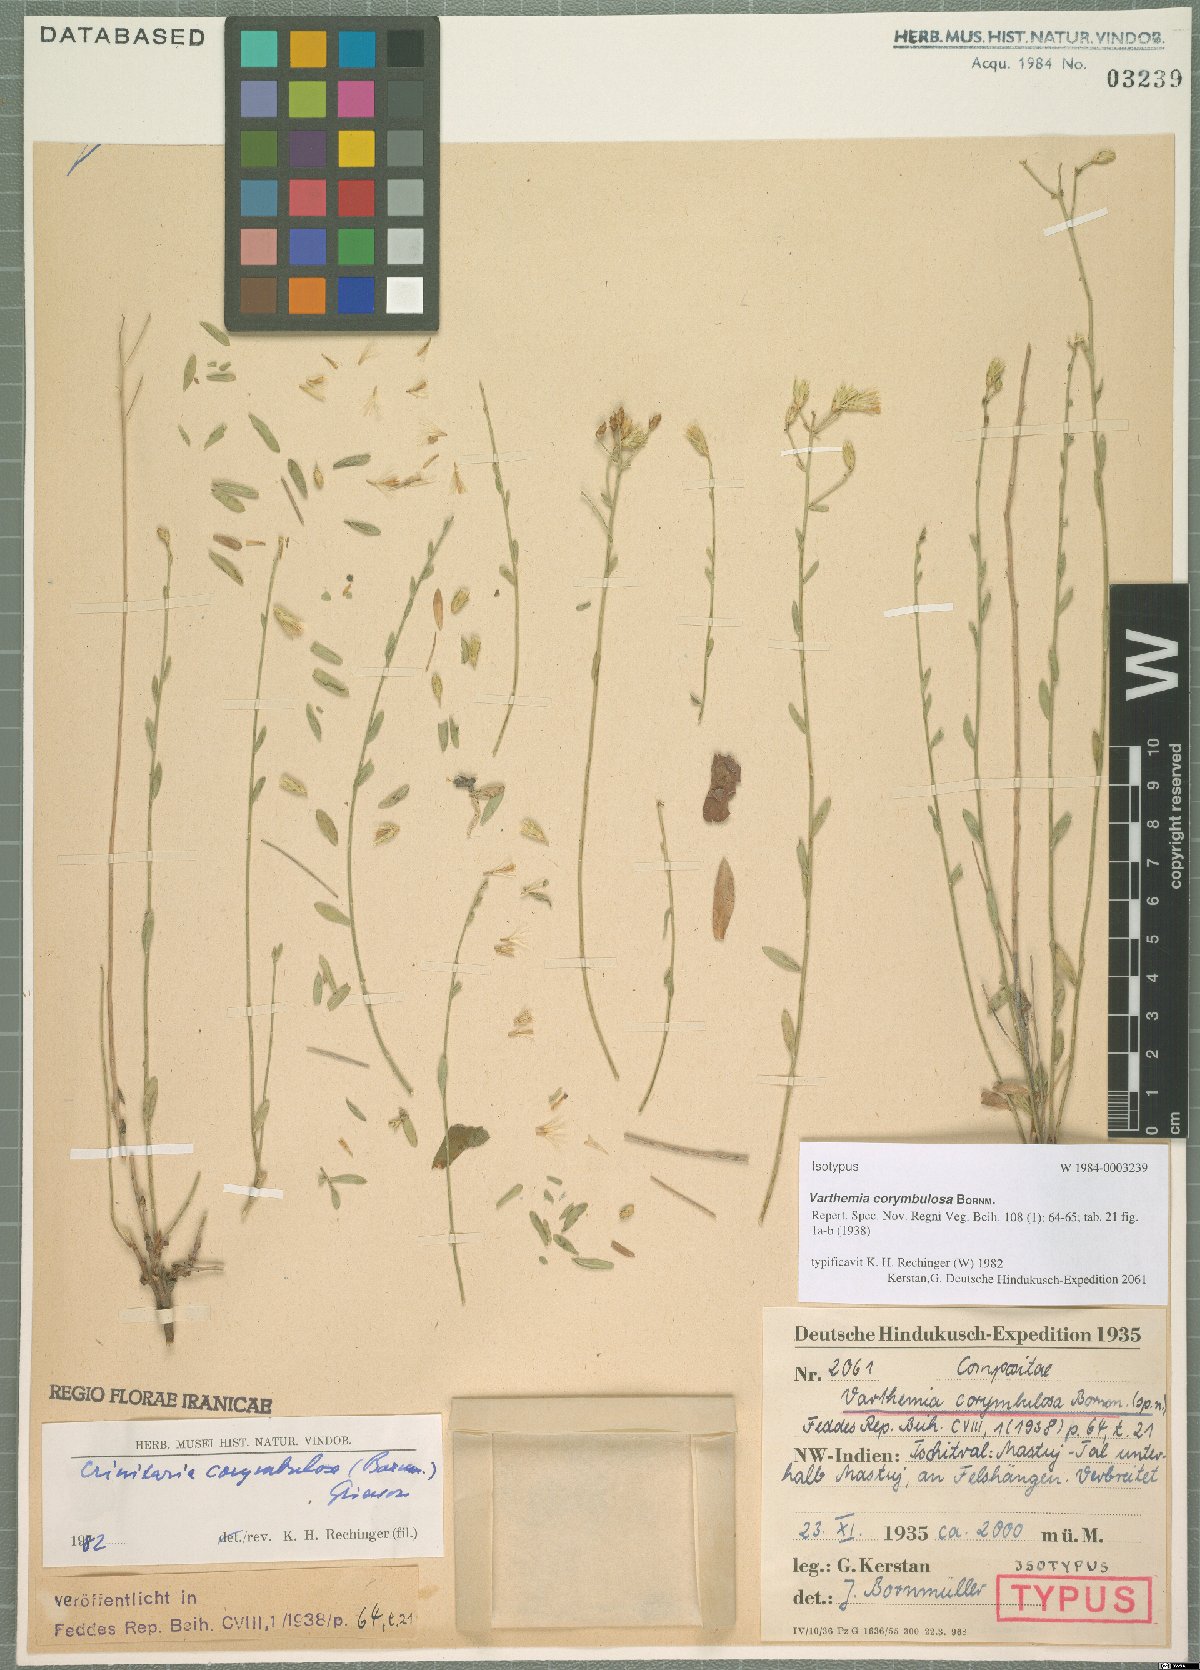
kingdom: Plantae
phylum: Tracheophyta
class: Magnoliopsida
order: Asterales
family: Asteraceae
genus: Galatella
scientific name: Galatella corymbulosa
